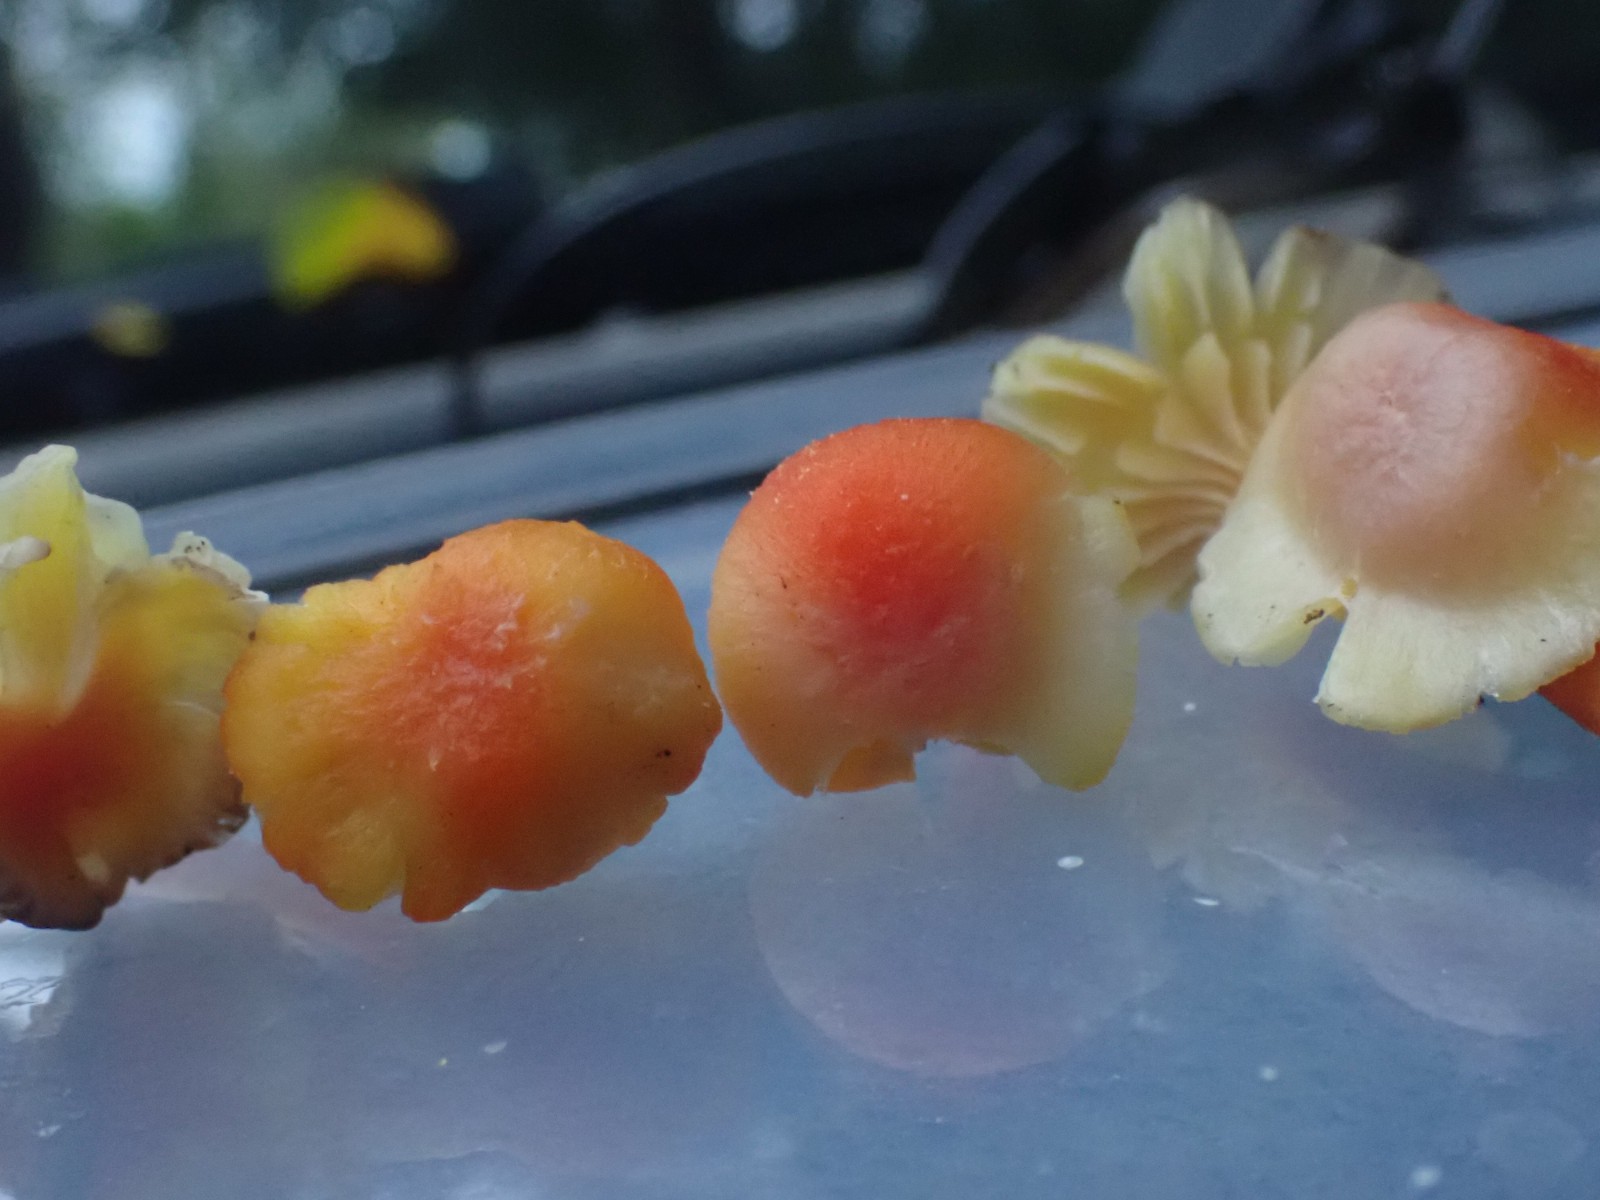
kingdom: Fungi
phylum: Basidiomycota
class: Agaricomycetes
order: Agaricales
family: Hygrophoraceae
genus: Hygrocybe
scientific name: Hygrocybe cantharellus
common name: kantarel-vokshat
